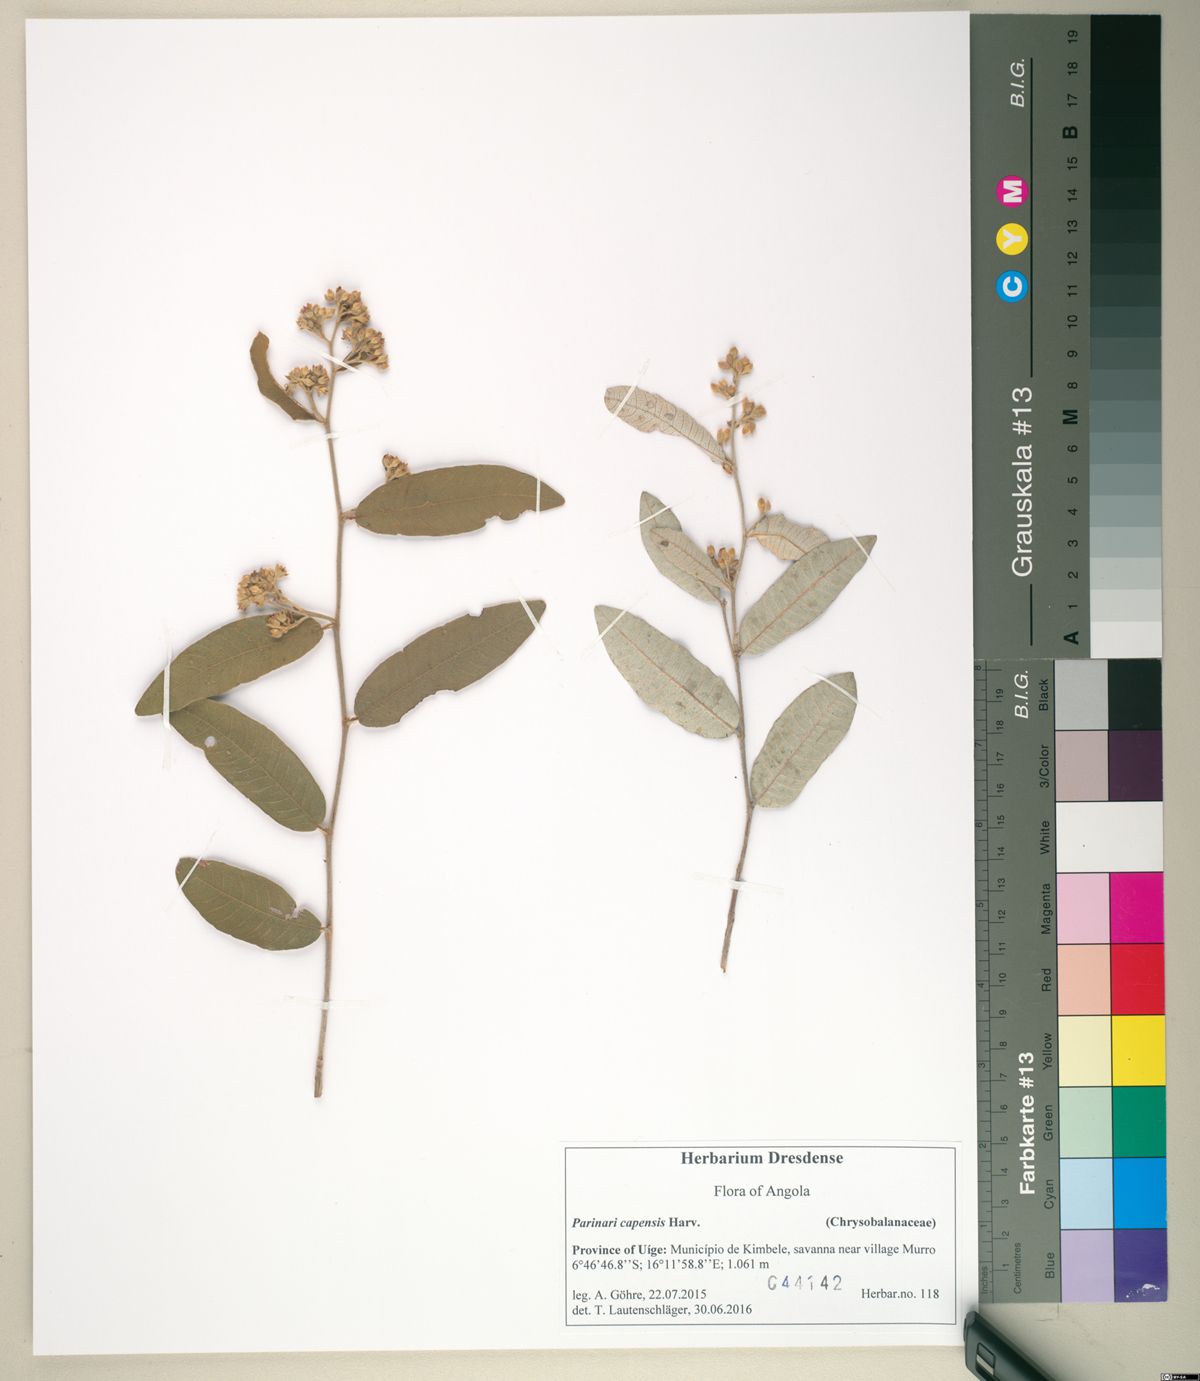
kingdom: Plantae
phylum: Tracheophyta
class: Magnoliopsida
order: Malpighiales
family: Chrysobalanaceae
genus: Parinari
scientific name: Parinari capensis
